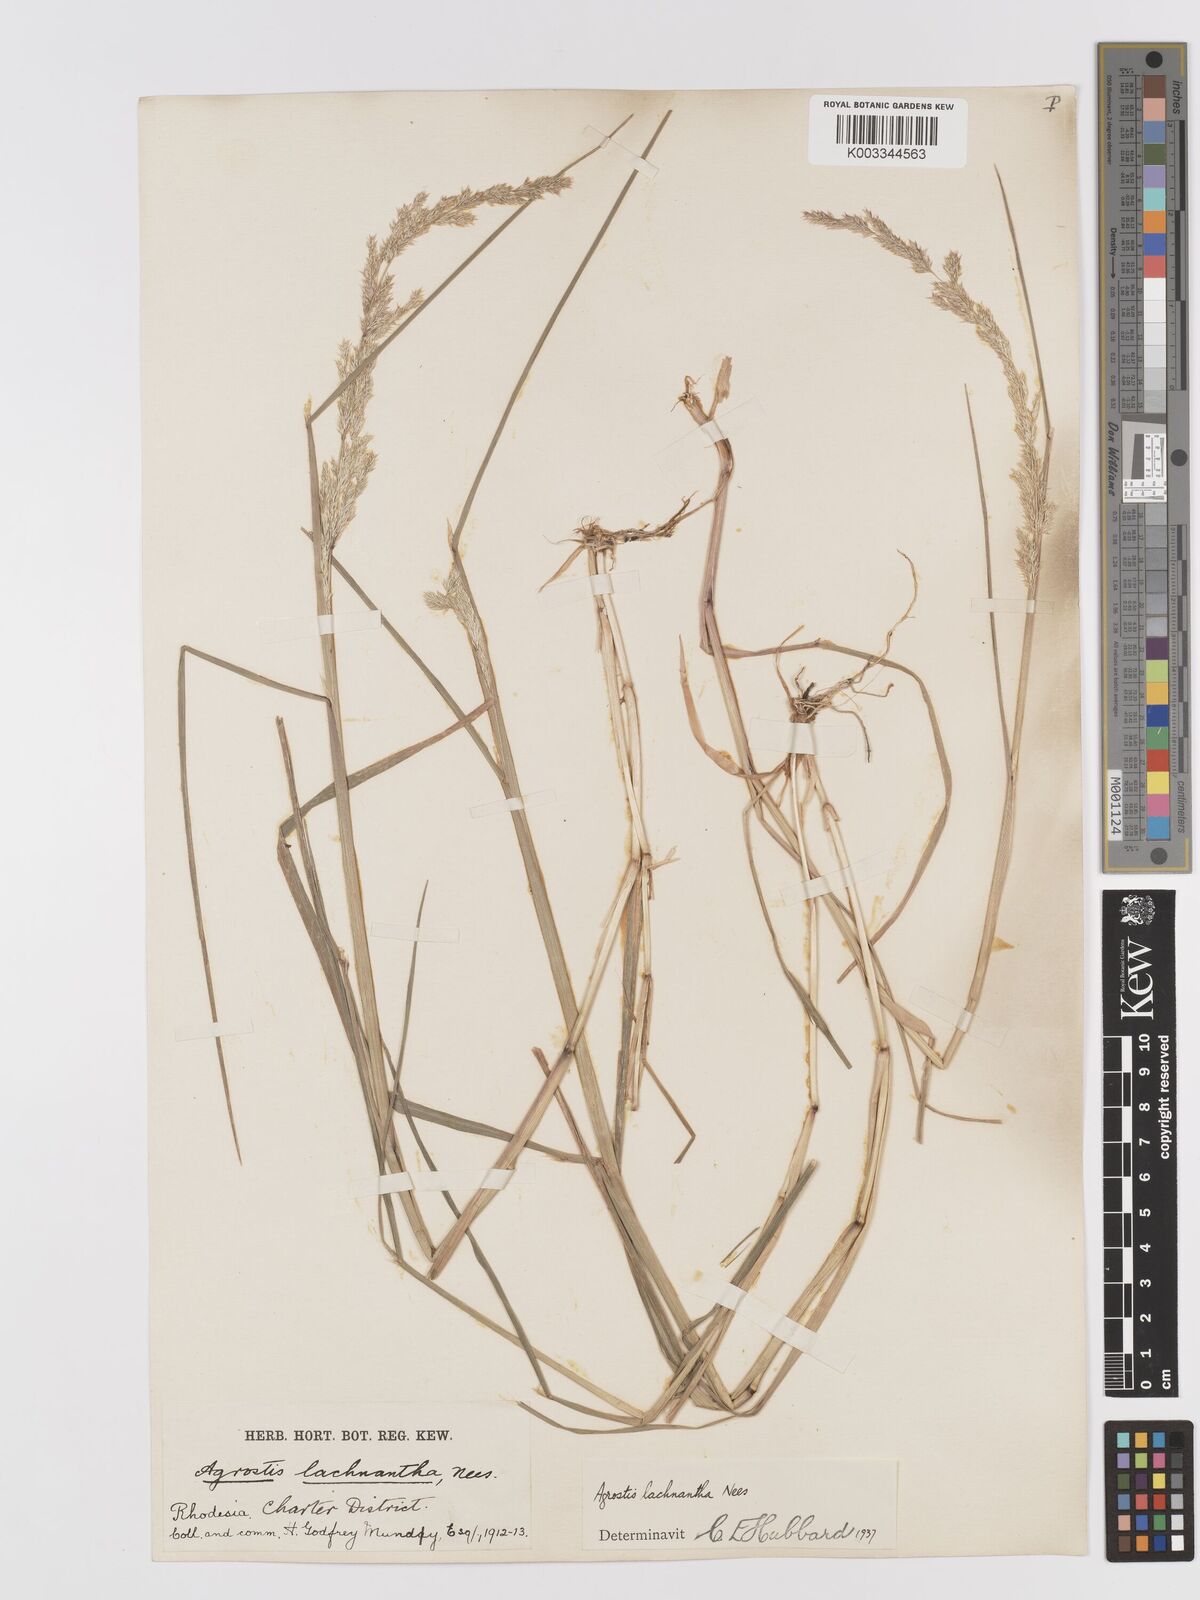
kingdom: Plantae
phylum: Tracheophyta
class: Liliopsida
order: Poales
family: Poaceae
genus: Lachnagrostis
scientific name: Lachnagrostis lachnantha
